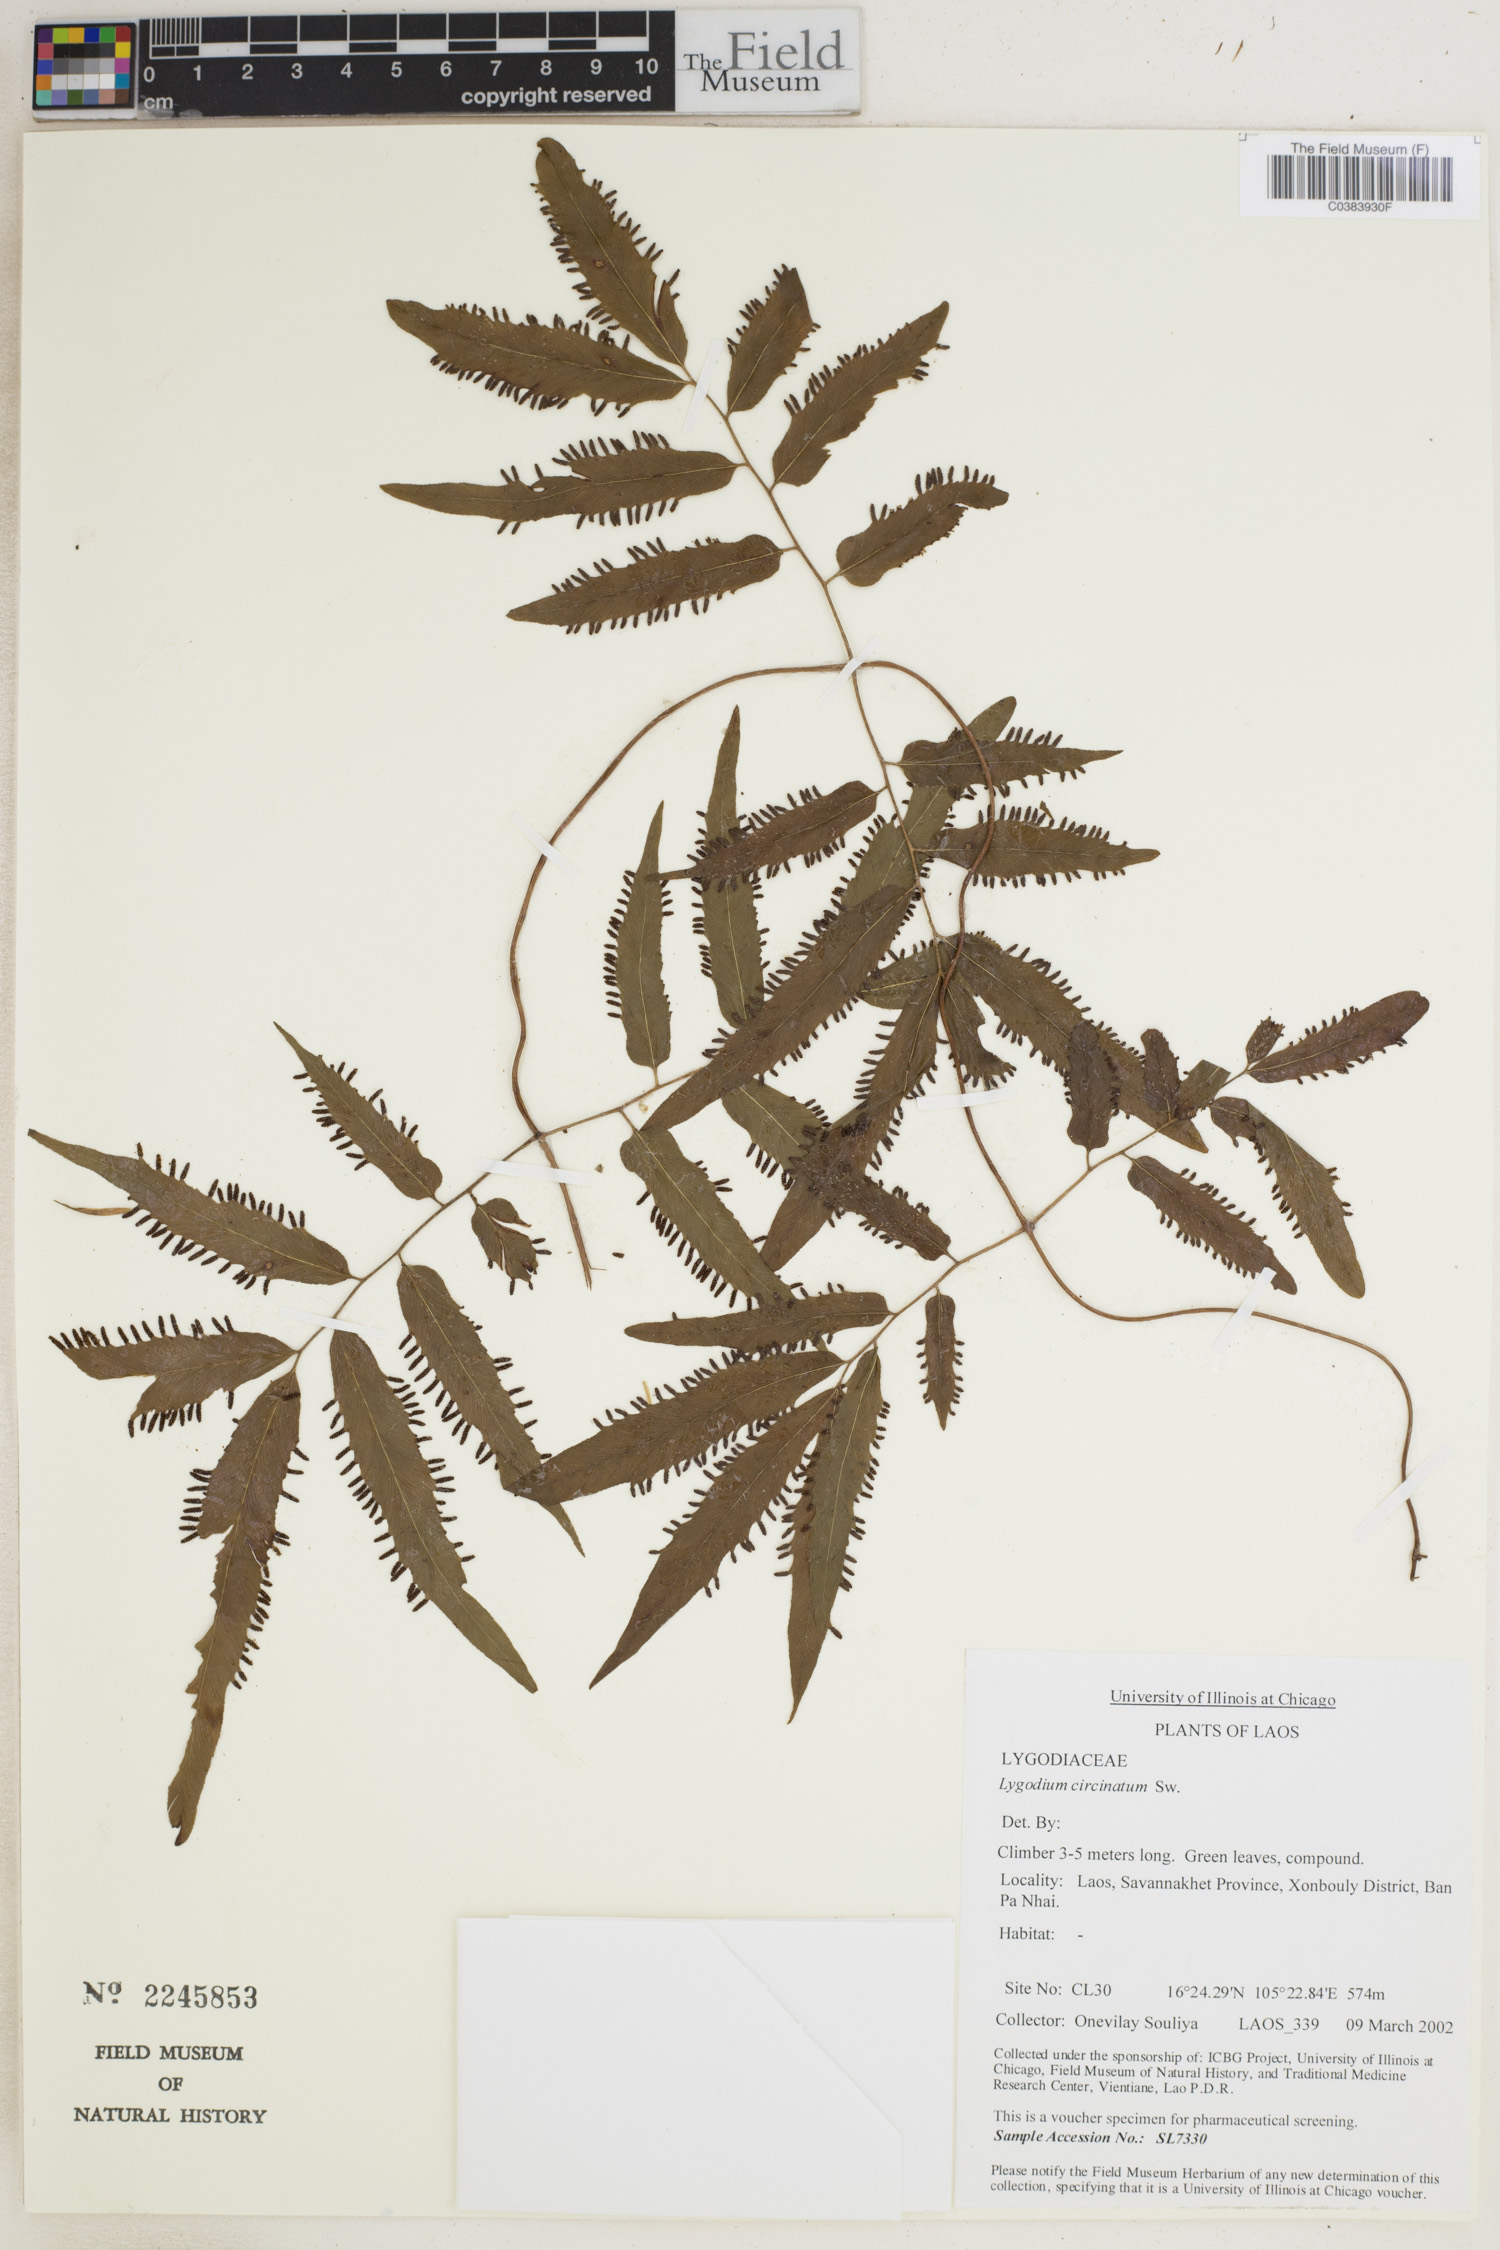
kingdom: Plantae
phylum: Tracheophyta
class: Polypodiopsida
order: Schizaeales
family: Lygodiaceae
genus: Lygodium
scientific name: Lygodium circinnatum
